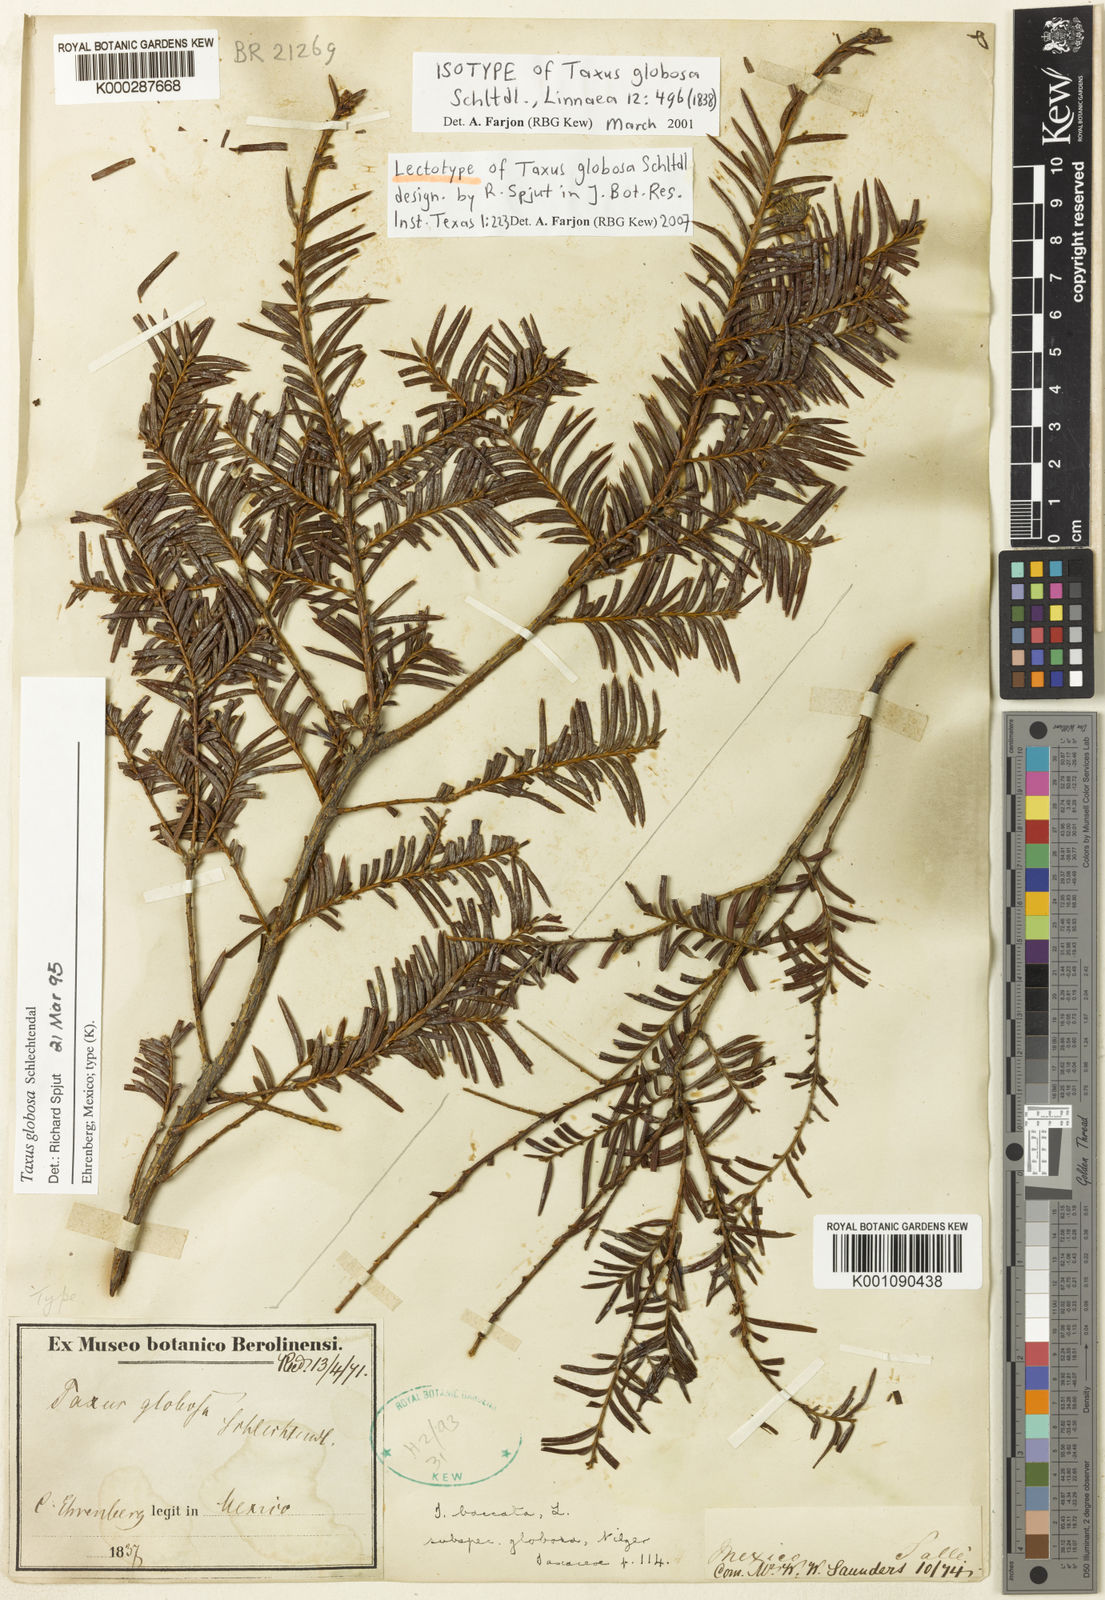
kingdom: Plantae
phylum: Tracheophyta
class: Pinopsida
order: Pinales
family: Taxaceae
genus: Taxus
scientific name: Taxus globosa
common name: Mexican yew
